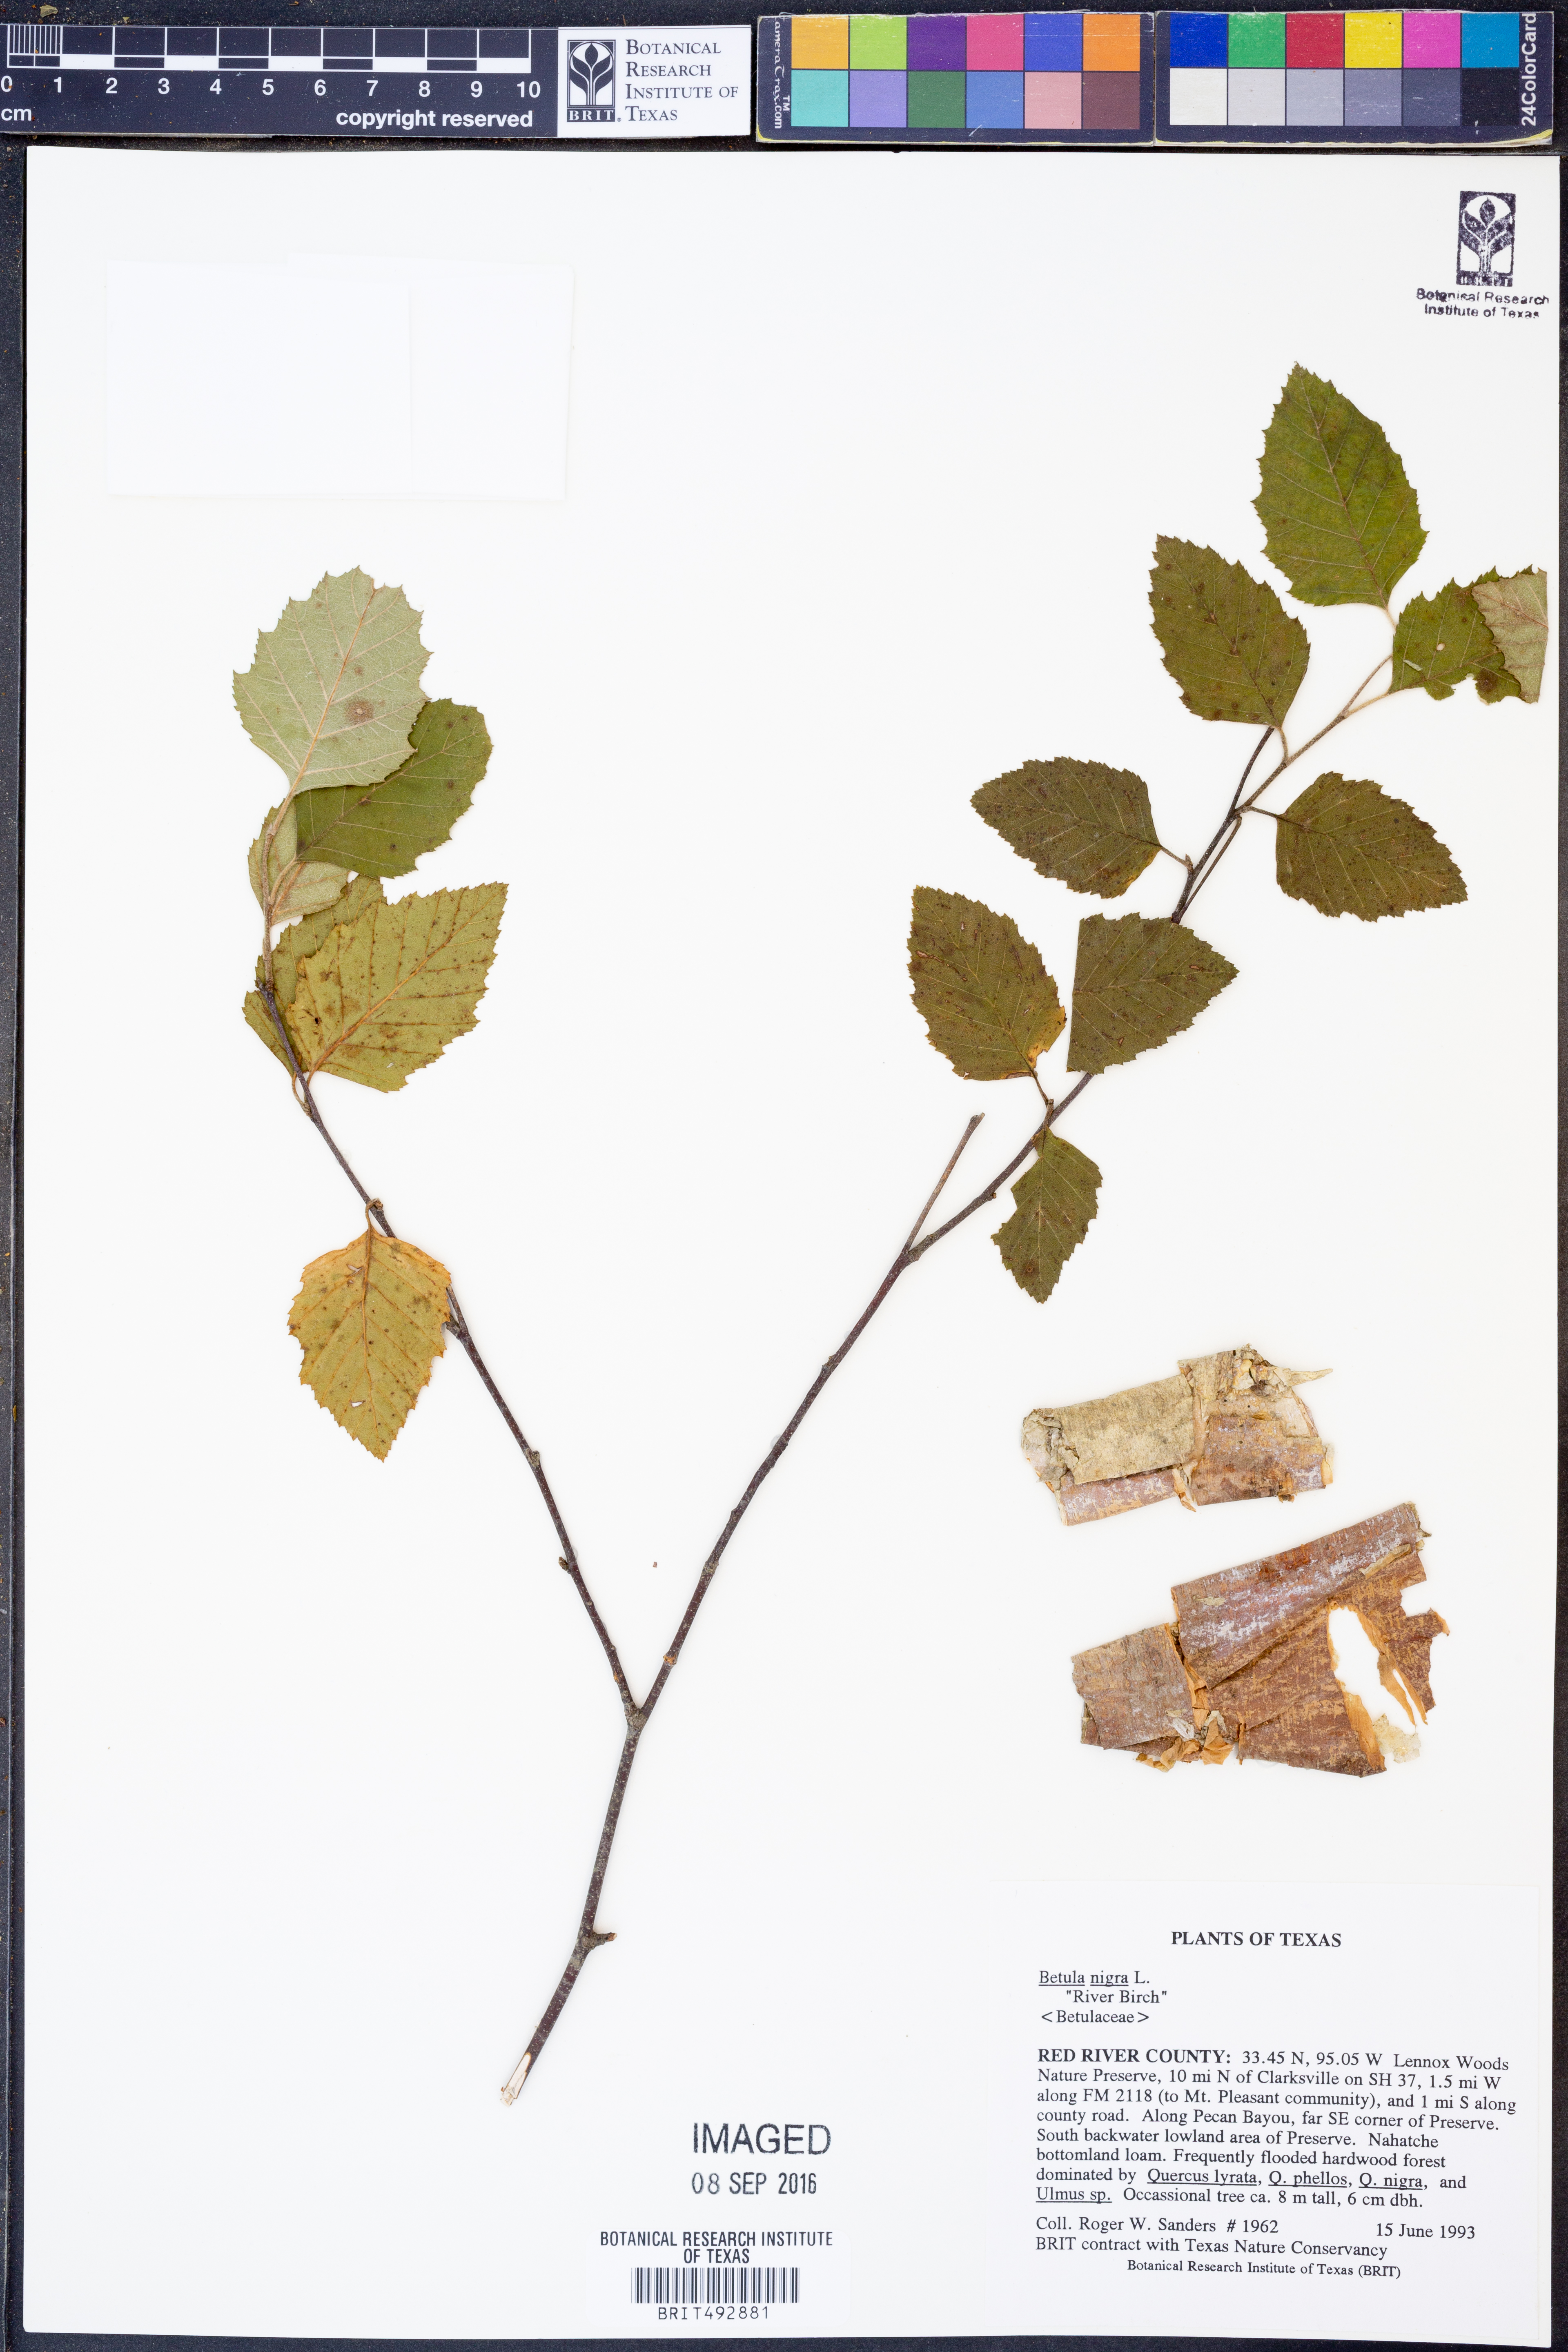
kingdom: Plantae
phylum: Tracheophyta
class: Magnoliopsida
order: Fagales
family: Betulaceae
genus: Betula
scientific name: Betula nigra
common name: Black birch
